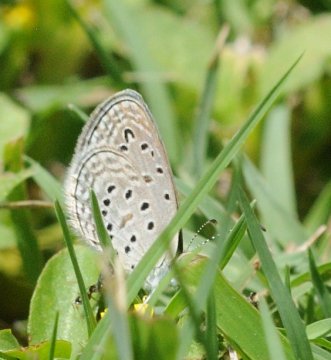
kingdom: Animalia
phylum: Arthropoda
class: Insecta
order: Lepidoptera
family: Lycaenidae
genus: Zizula
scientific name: Zizula hylax
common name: Tiny Grass Blue
